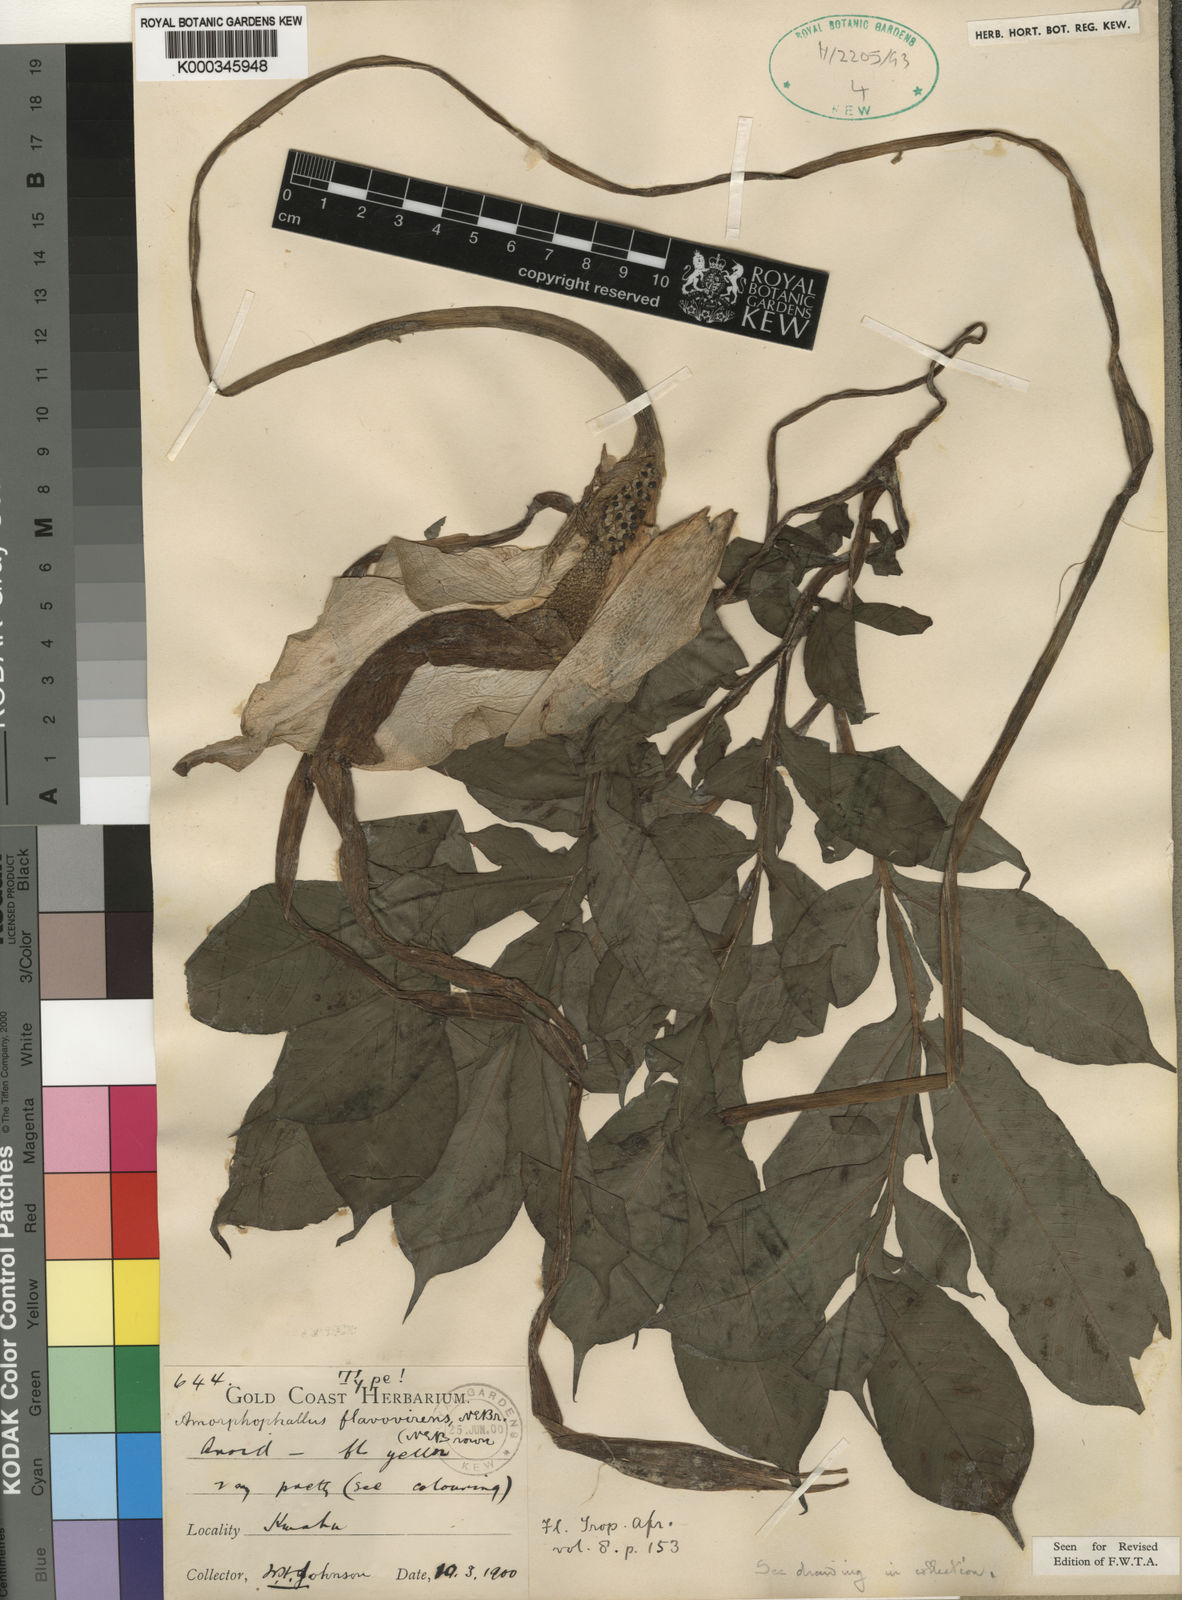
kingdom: Plantae
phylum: Tracheophyta
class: Liliopsida
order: Alismatales
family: Araceae
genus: Amorphophallus
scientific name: Amorphophallus baumannii
